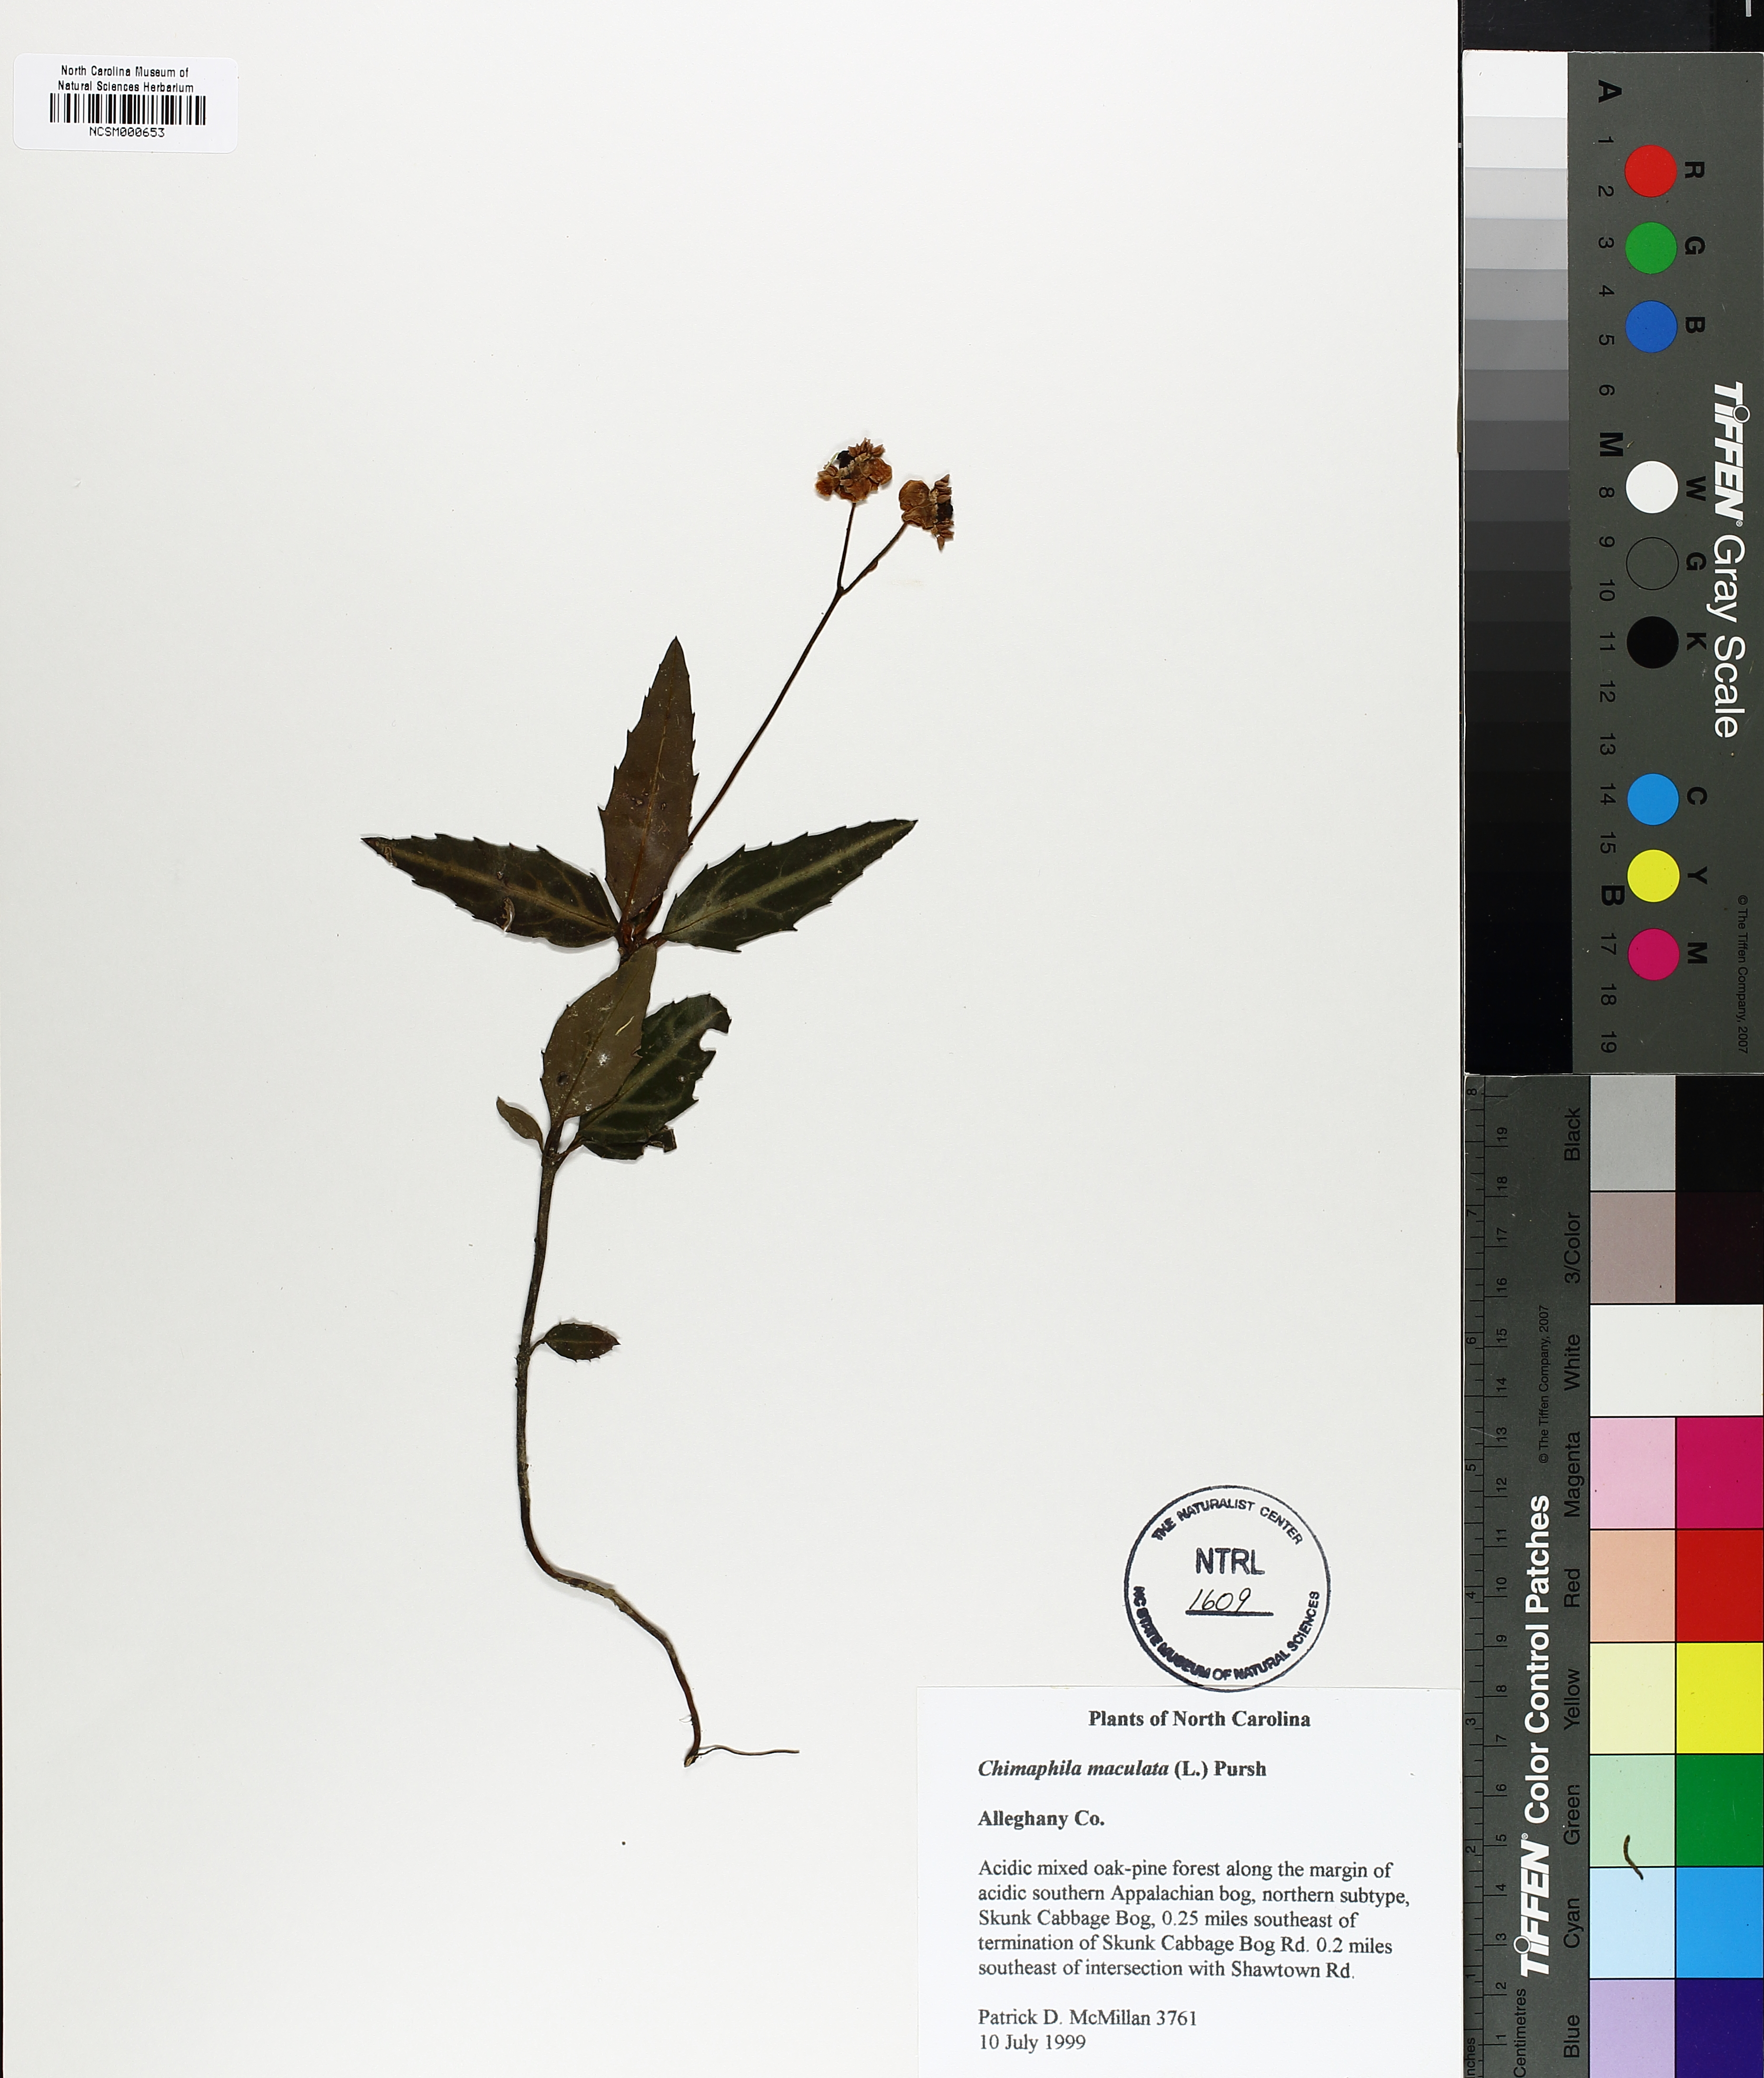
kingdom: Plantae
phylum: Tracheophyta
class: Magnoliopsida
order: Ericales
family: Ericaceae
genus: Chimaphila
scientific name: Chimaphila maculata
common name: Spotted pipsissewa
